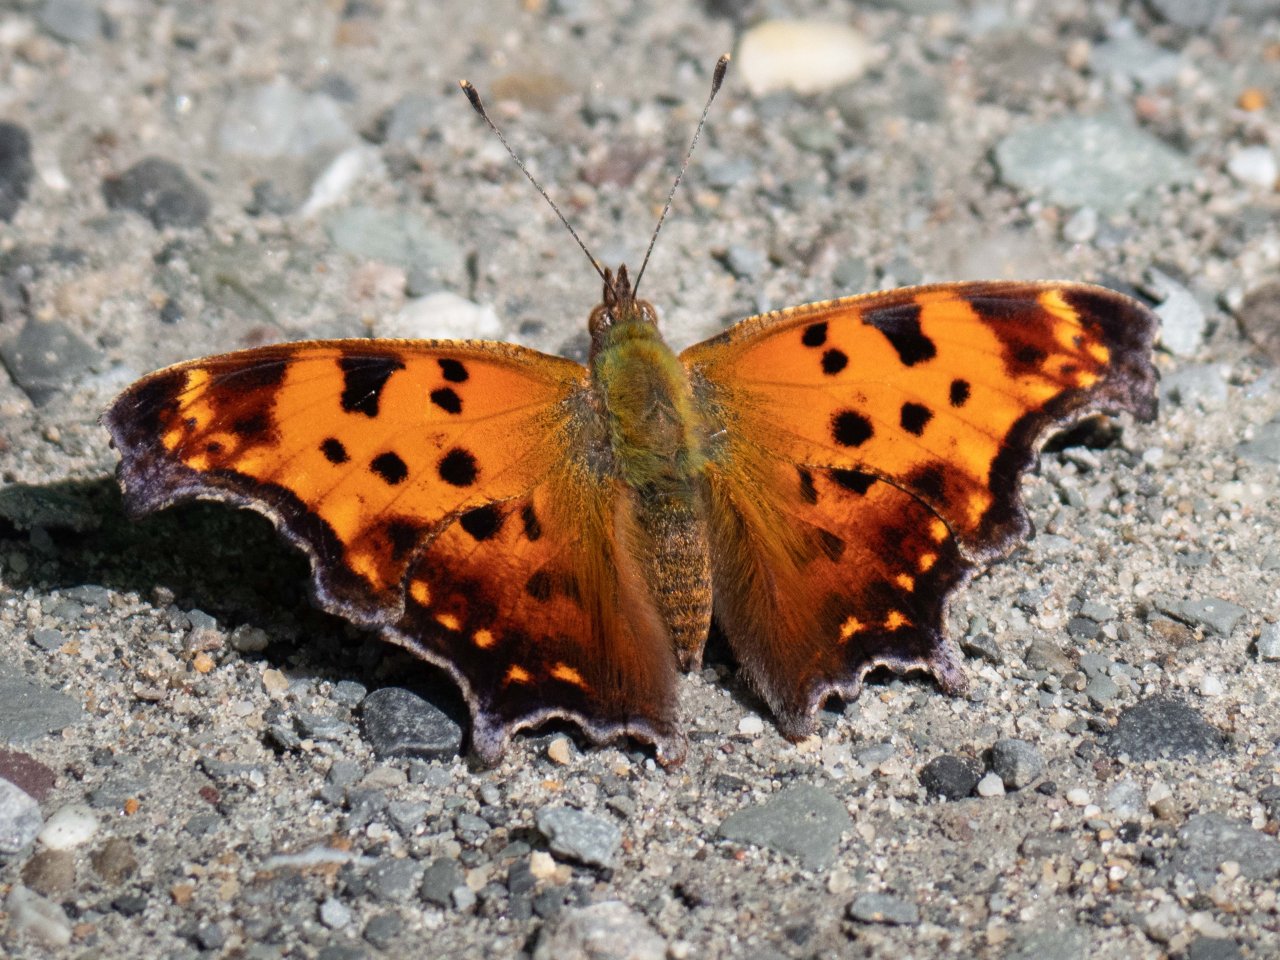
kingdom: Animalia
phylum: Arthropoda
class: Insecta
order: Lepidoptera
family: Nymphalidae
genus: Polygonia
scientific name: Polygonia comma
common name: Eastern Comma
